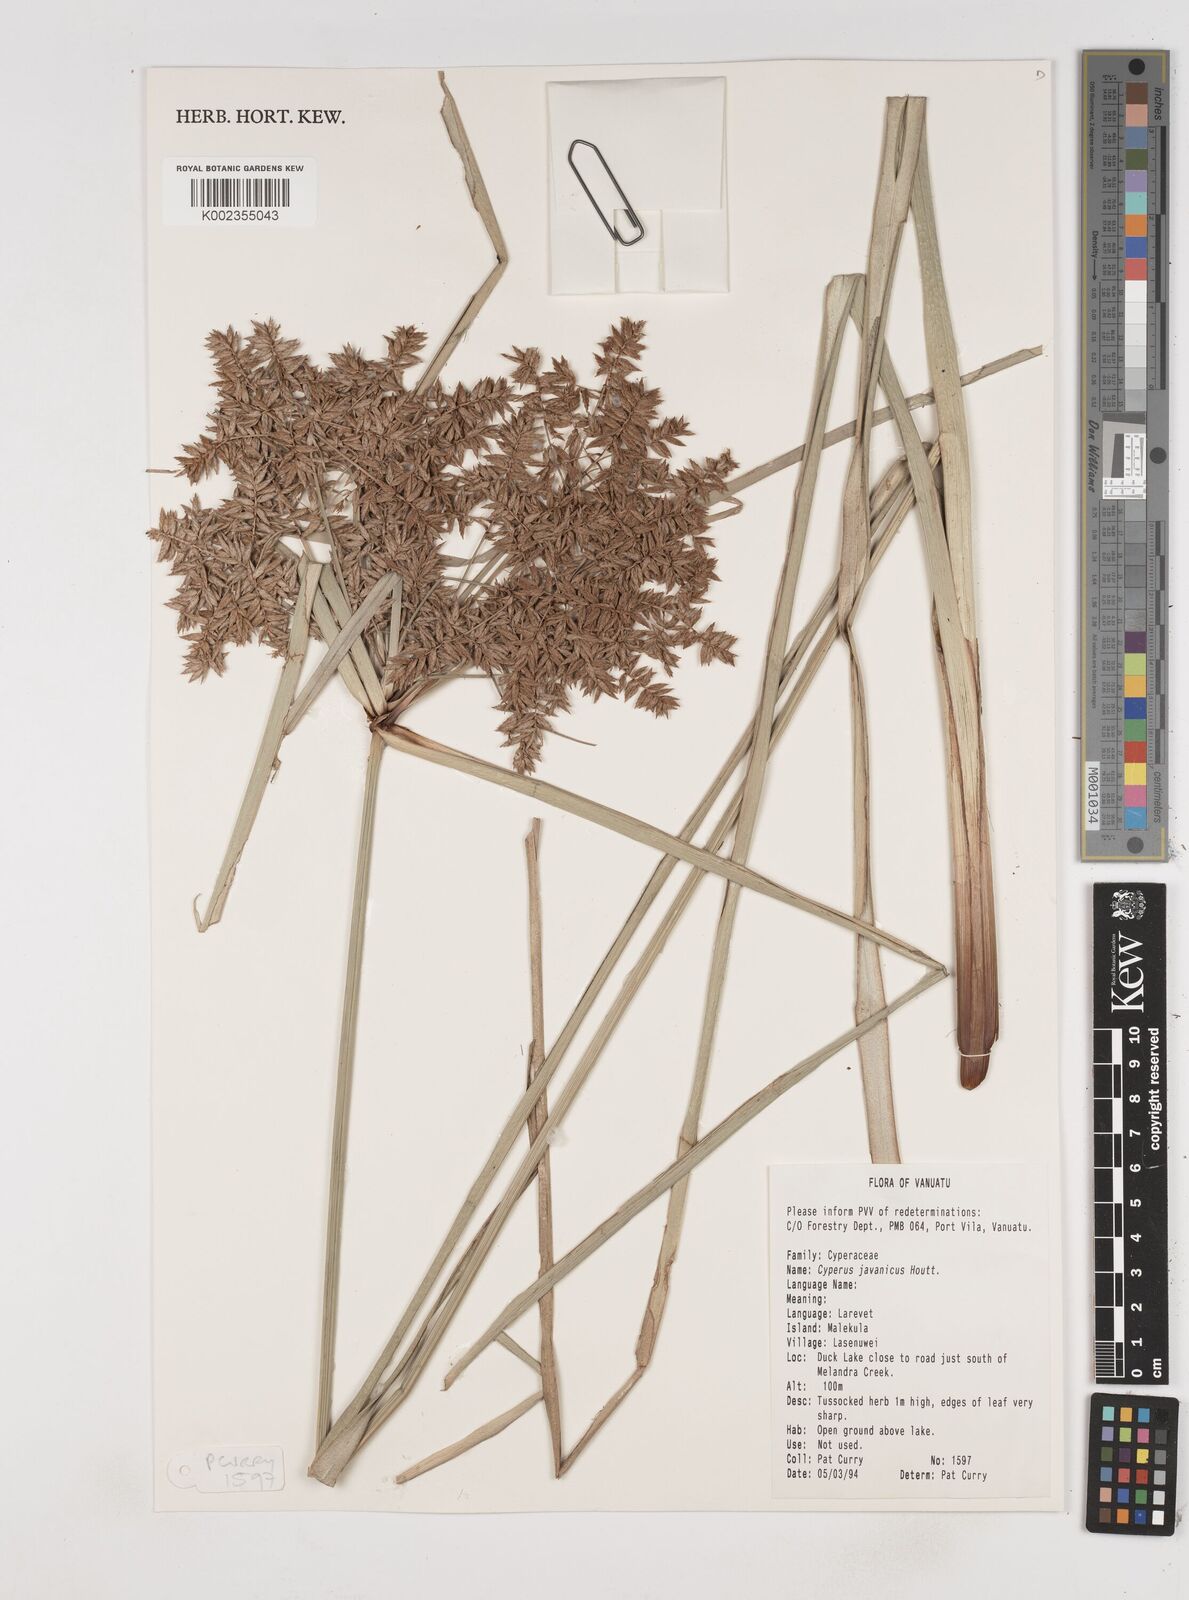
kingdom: Plantae
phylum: Tracheophyta
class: Liliopsida
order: Poales
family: Cyperaceae
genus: Cyperus
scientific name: Cyperus javanicus
